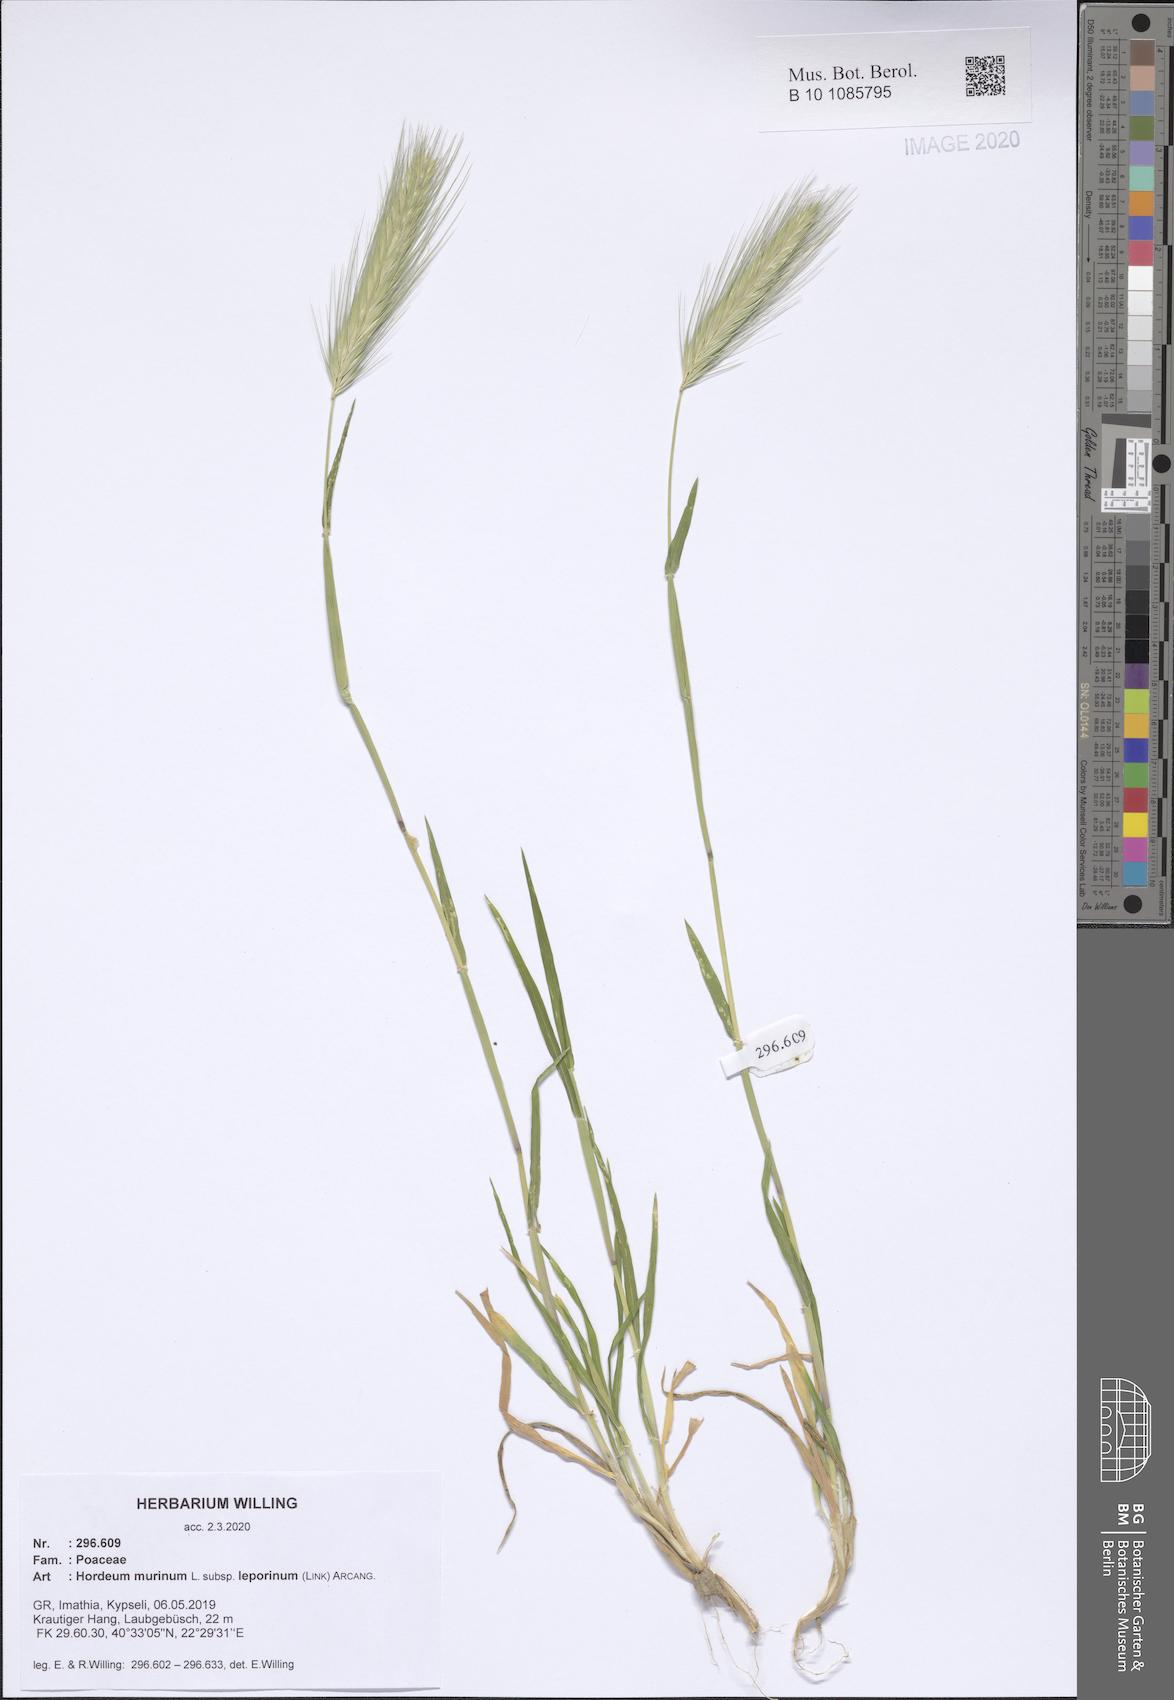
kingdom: Plantae
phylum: Tracheophyta
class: Liliopsida
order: Poales
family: Poaceae
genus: Hordeum
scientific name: Hordeum murinum
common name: Wall barley
